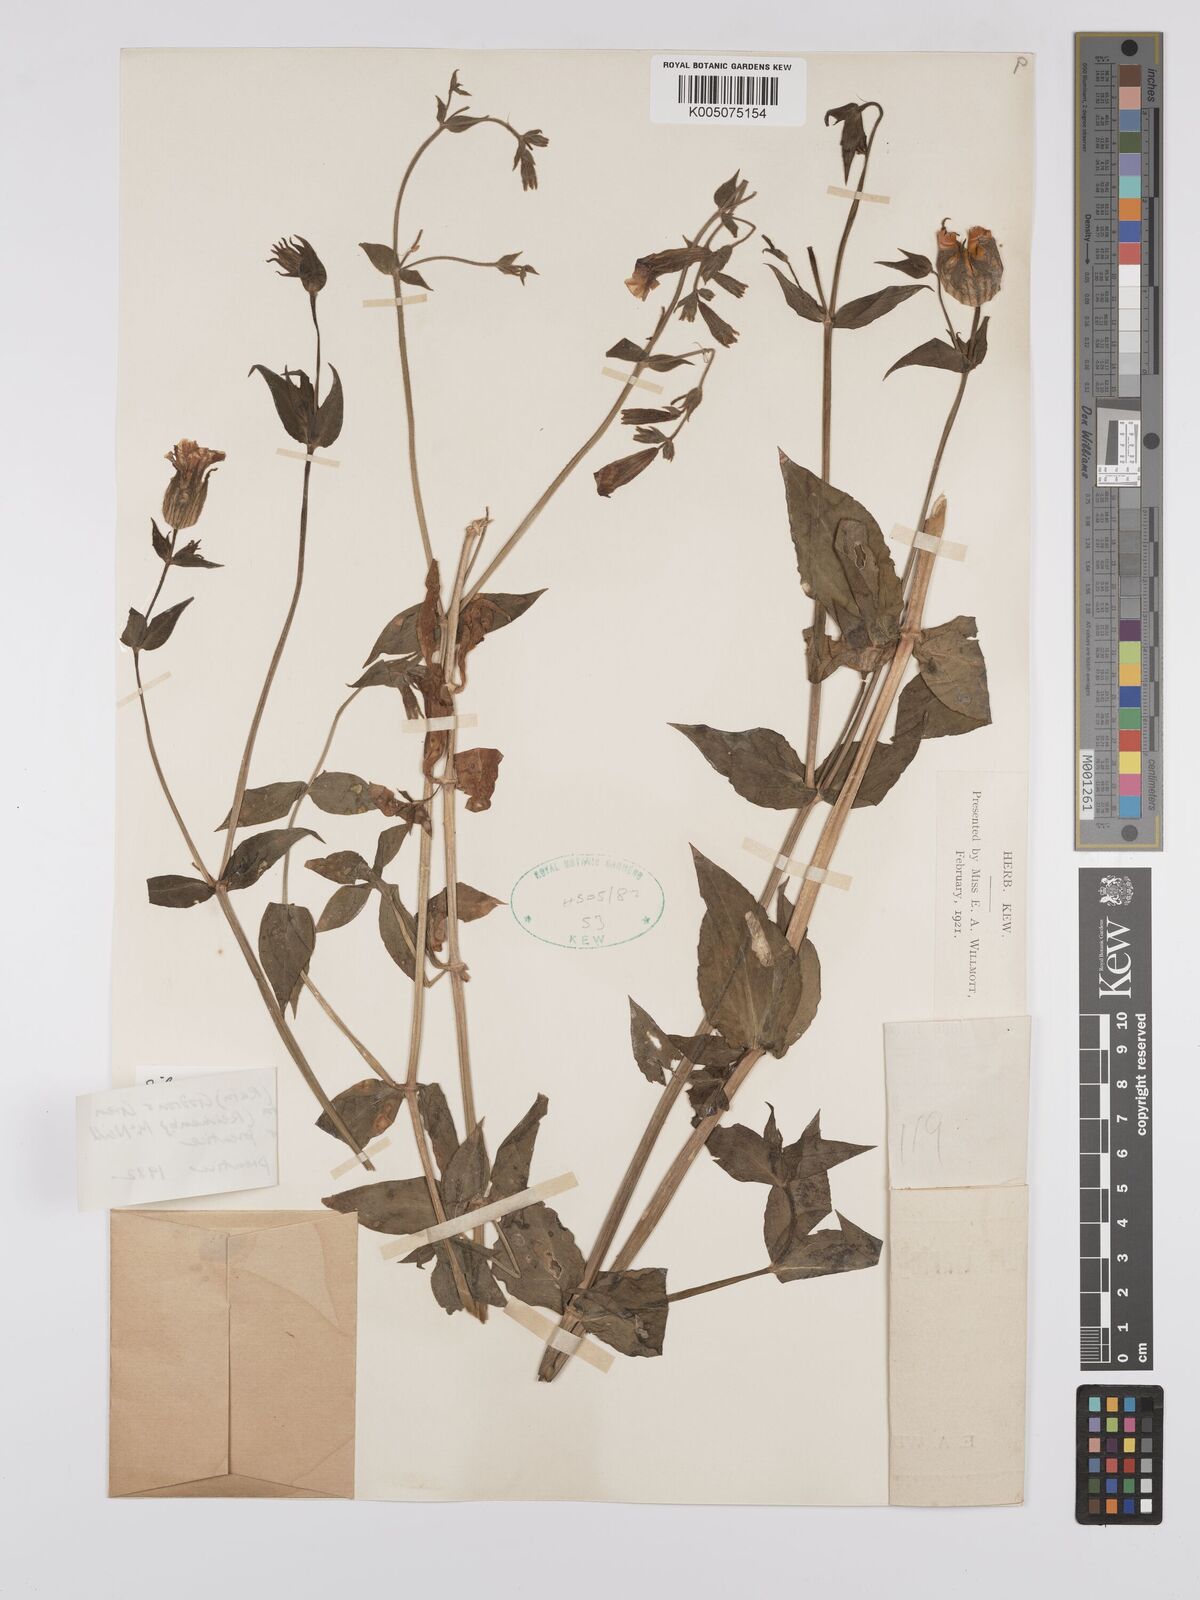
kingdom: Plantae
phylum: Tracheophyta
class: Magnoliopsida
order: Caryophyllales
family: Caryophyllaceae
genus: Silene
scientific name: Silene latifolia
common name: White campion
